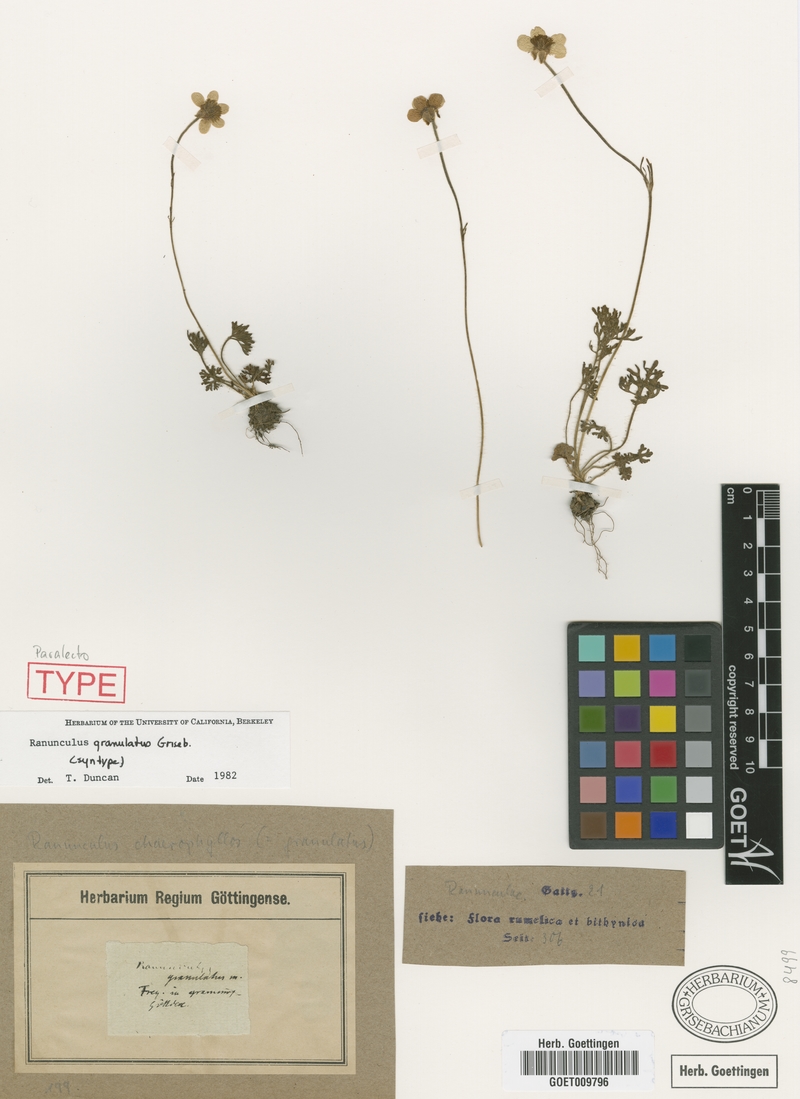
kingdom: Plantae
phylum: Tracheophyta
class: Magnoliopsida
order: Ranunculales
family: Ranunculaceae
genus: Ranunculus
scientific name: Ranunculus gracilis
